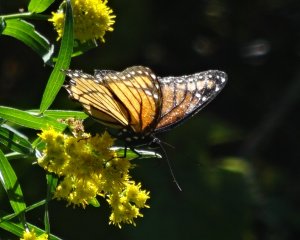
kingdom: Animalia
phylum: Arthropoda
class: Insecta
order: Lepidoptera
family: Nymphalidae
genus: Limenitis
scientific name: Limenitis archippus
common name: Viceroy
